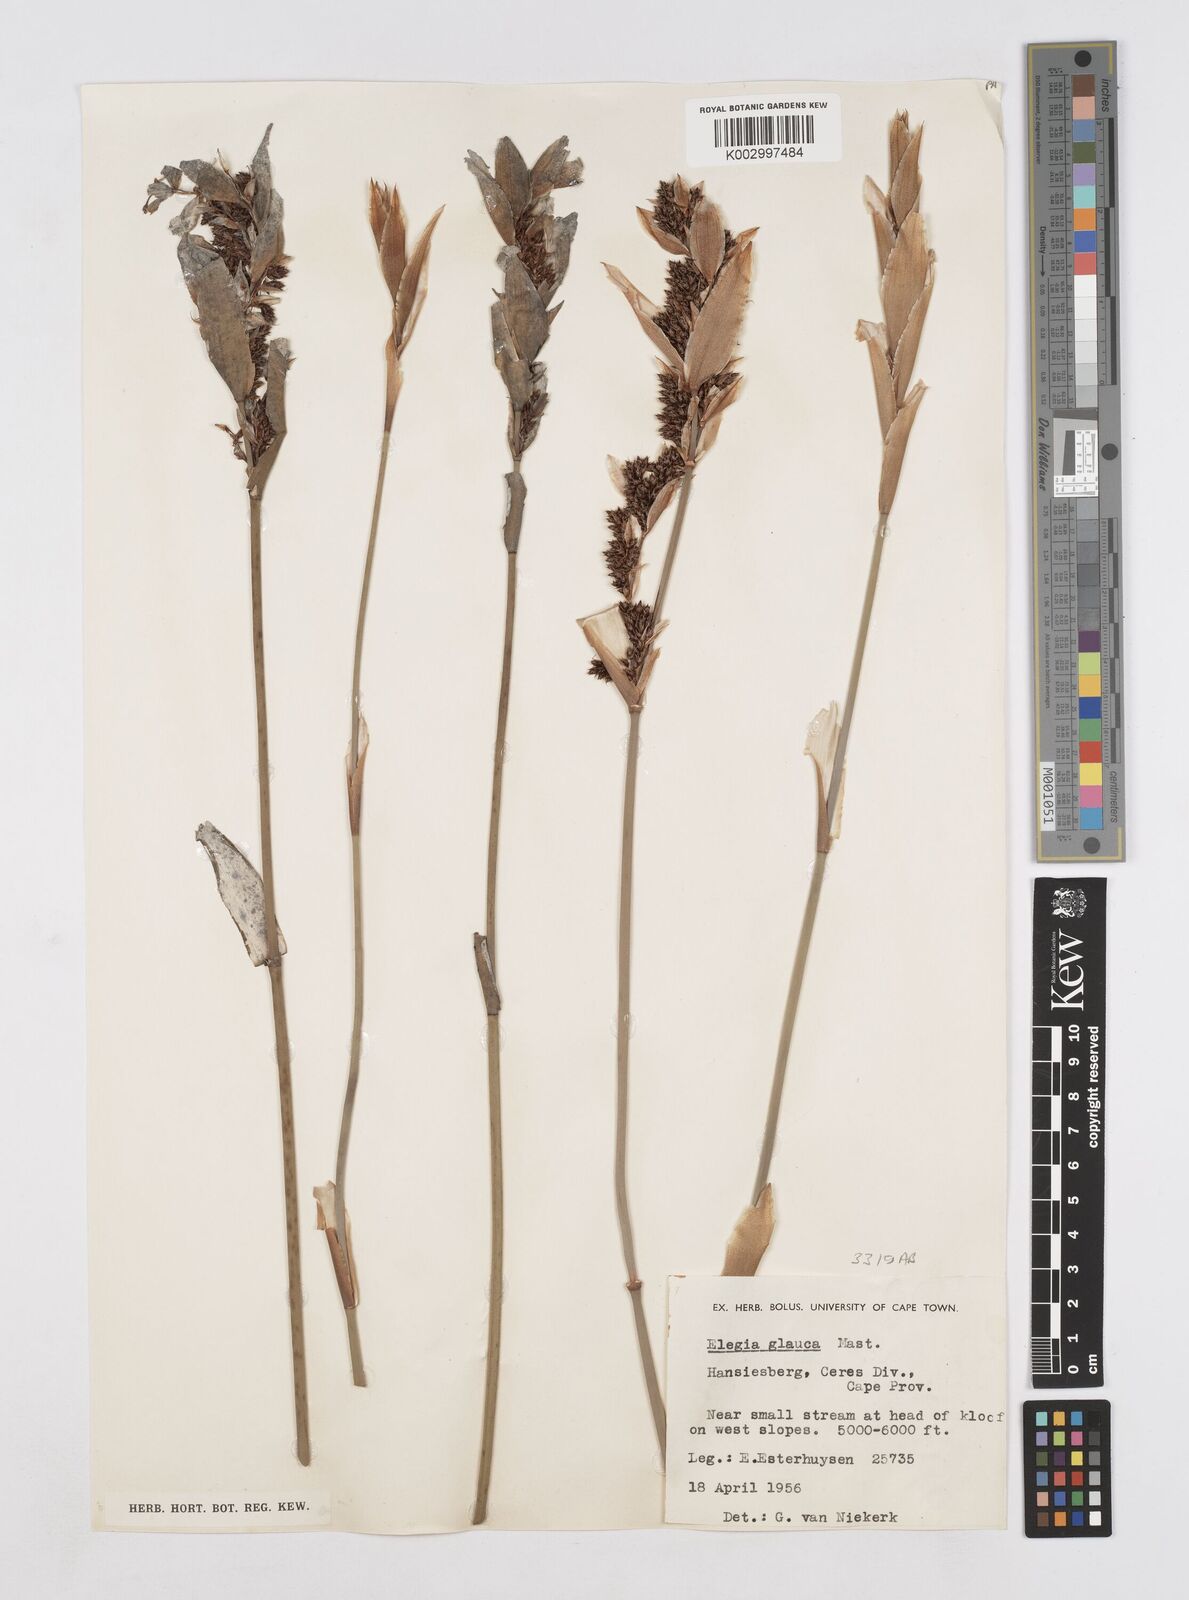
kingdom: Plantae
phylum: Tracheophyta
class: Liliopsida
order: Poales
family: Restionaceae
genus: Elegia
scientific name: Elegia asperiflora
